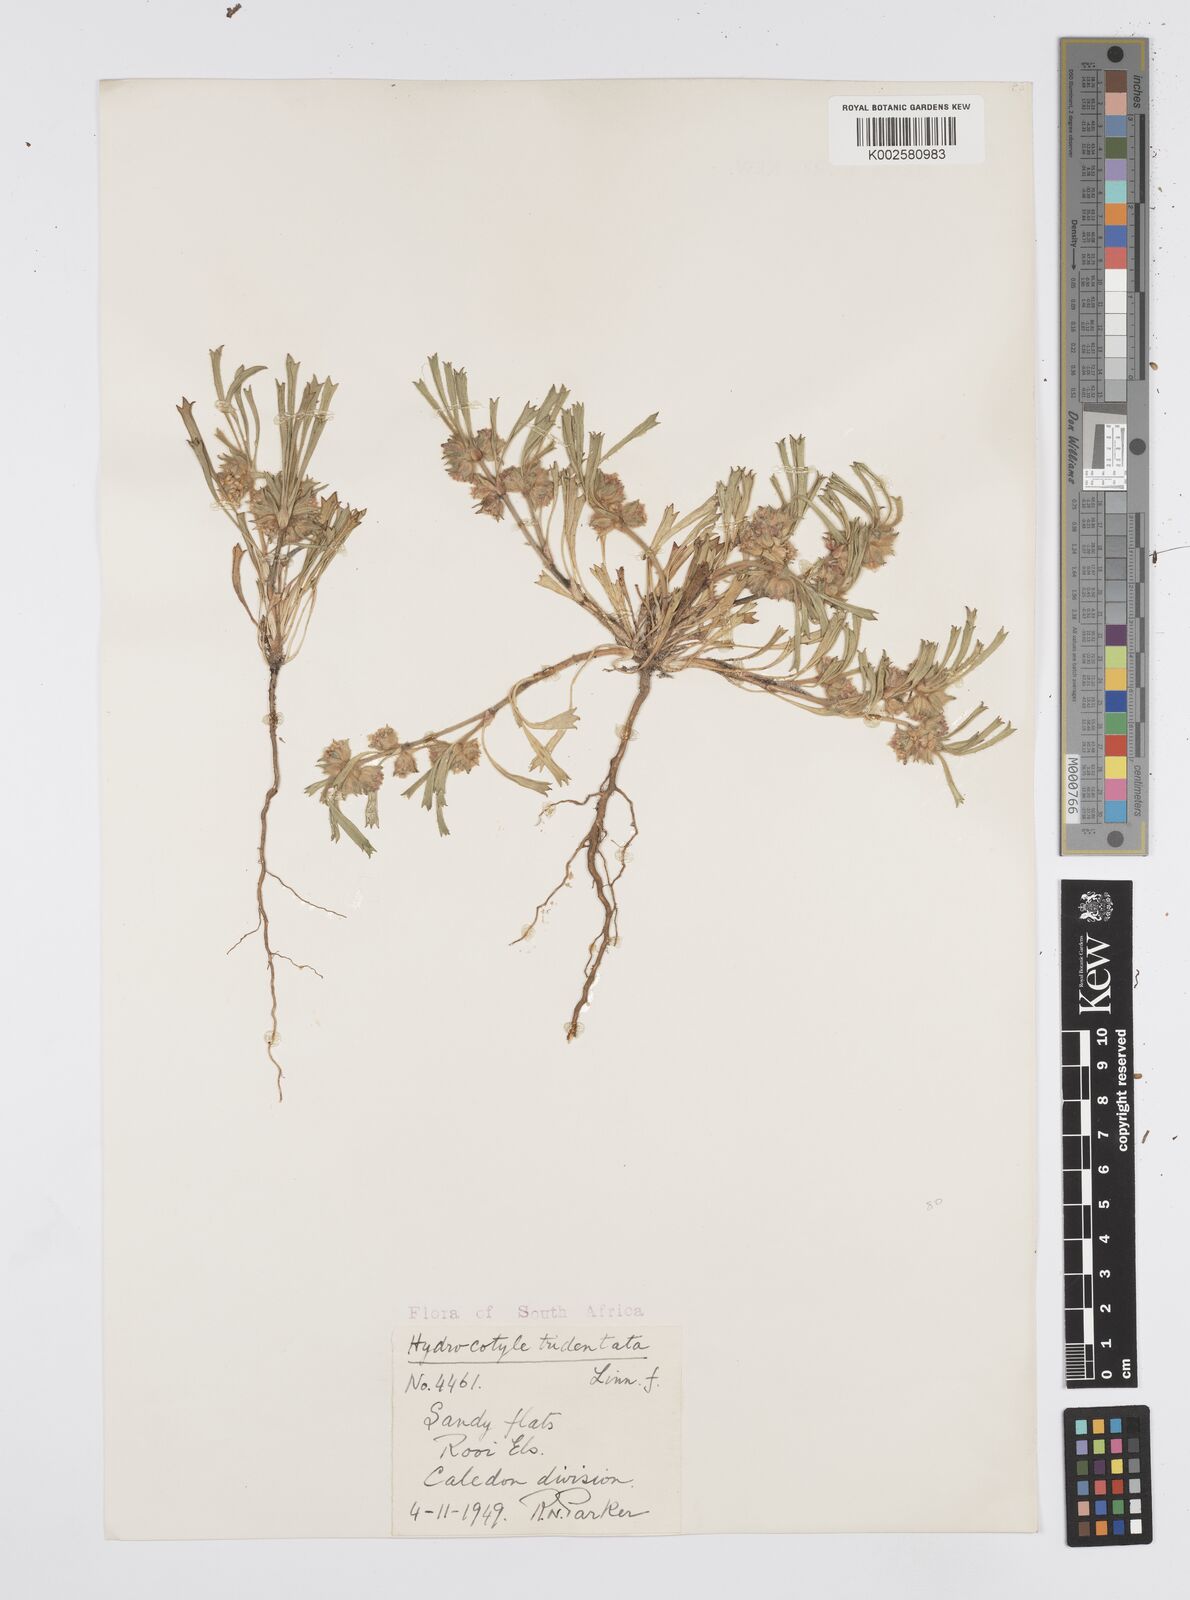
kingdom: Plantae
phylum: Tracheophyta
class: Magnoliopsida
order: Apiales
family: Apiaceae
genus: Centella
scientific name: Centella tridentata
